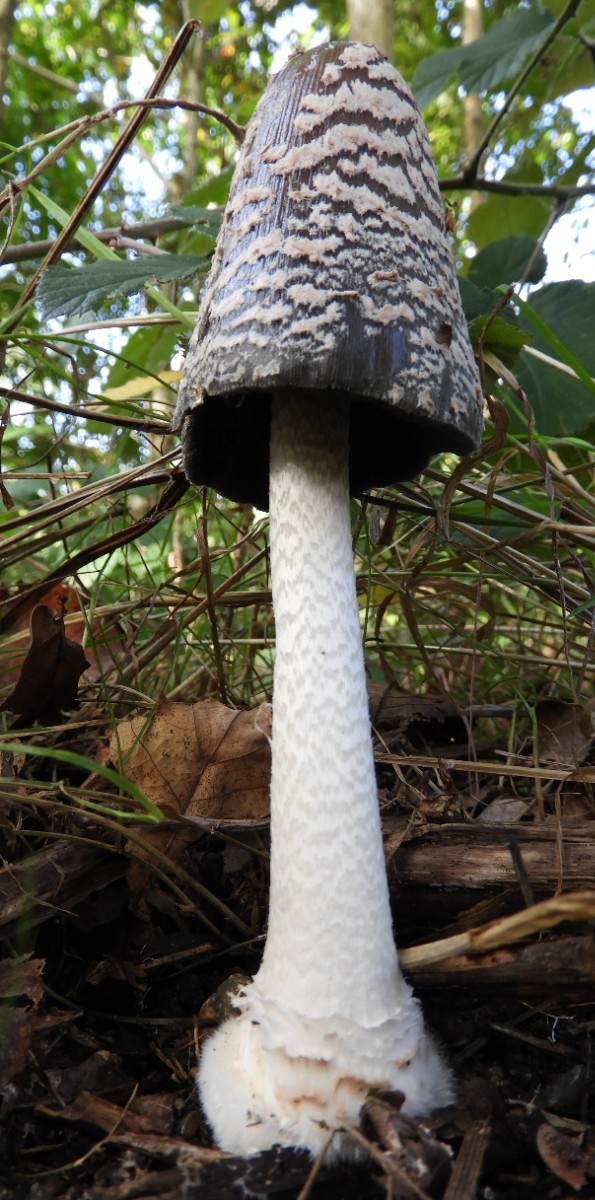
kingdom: Fungi
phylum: Basidiomycota
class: Agaricomycetes
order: Agaricales
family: Psathyrellaceae
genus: Coprinopsis
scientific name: Coprinopsis picacea
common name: skade-blækhat
